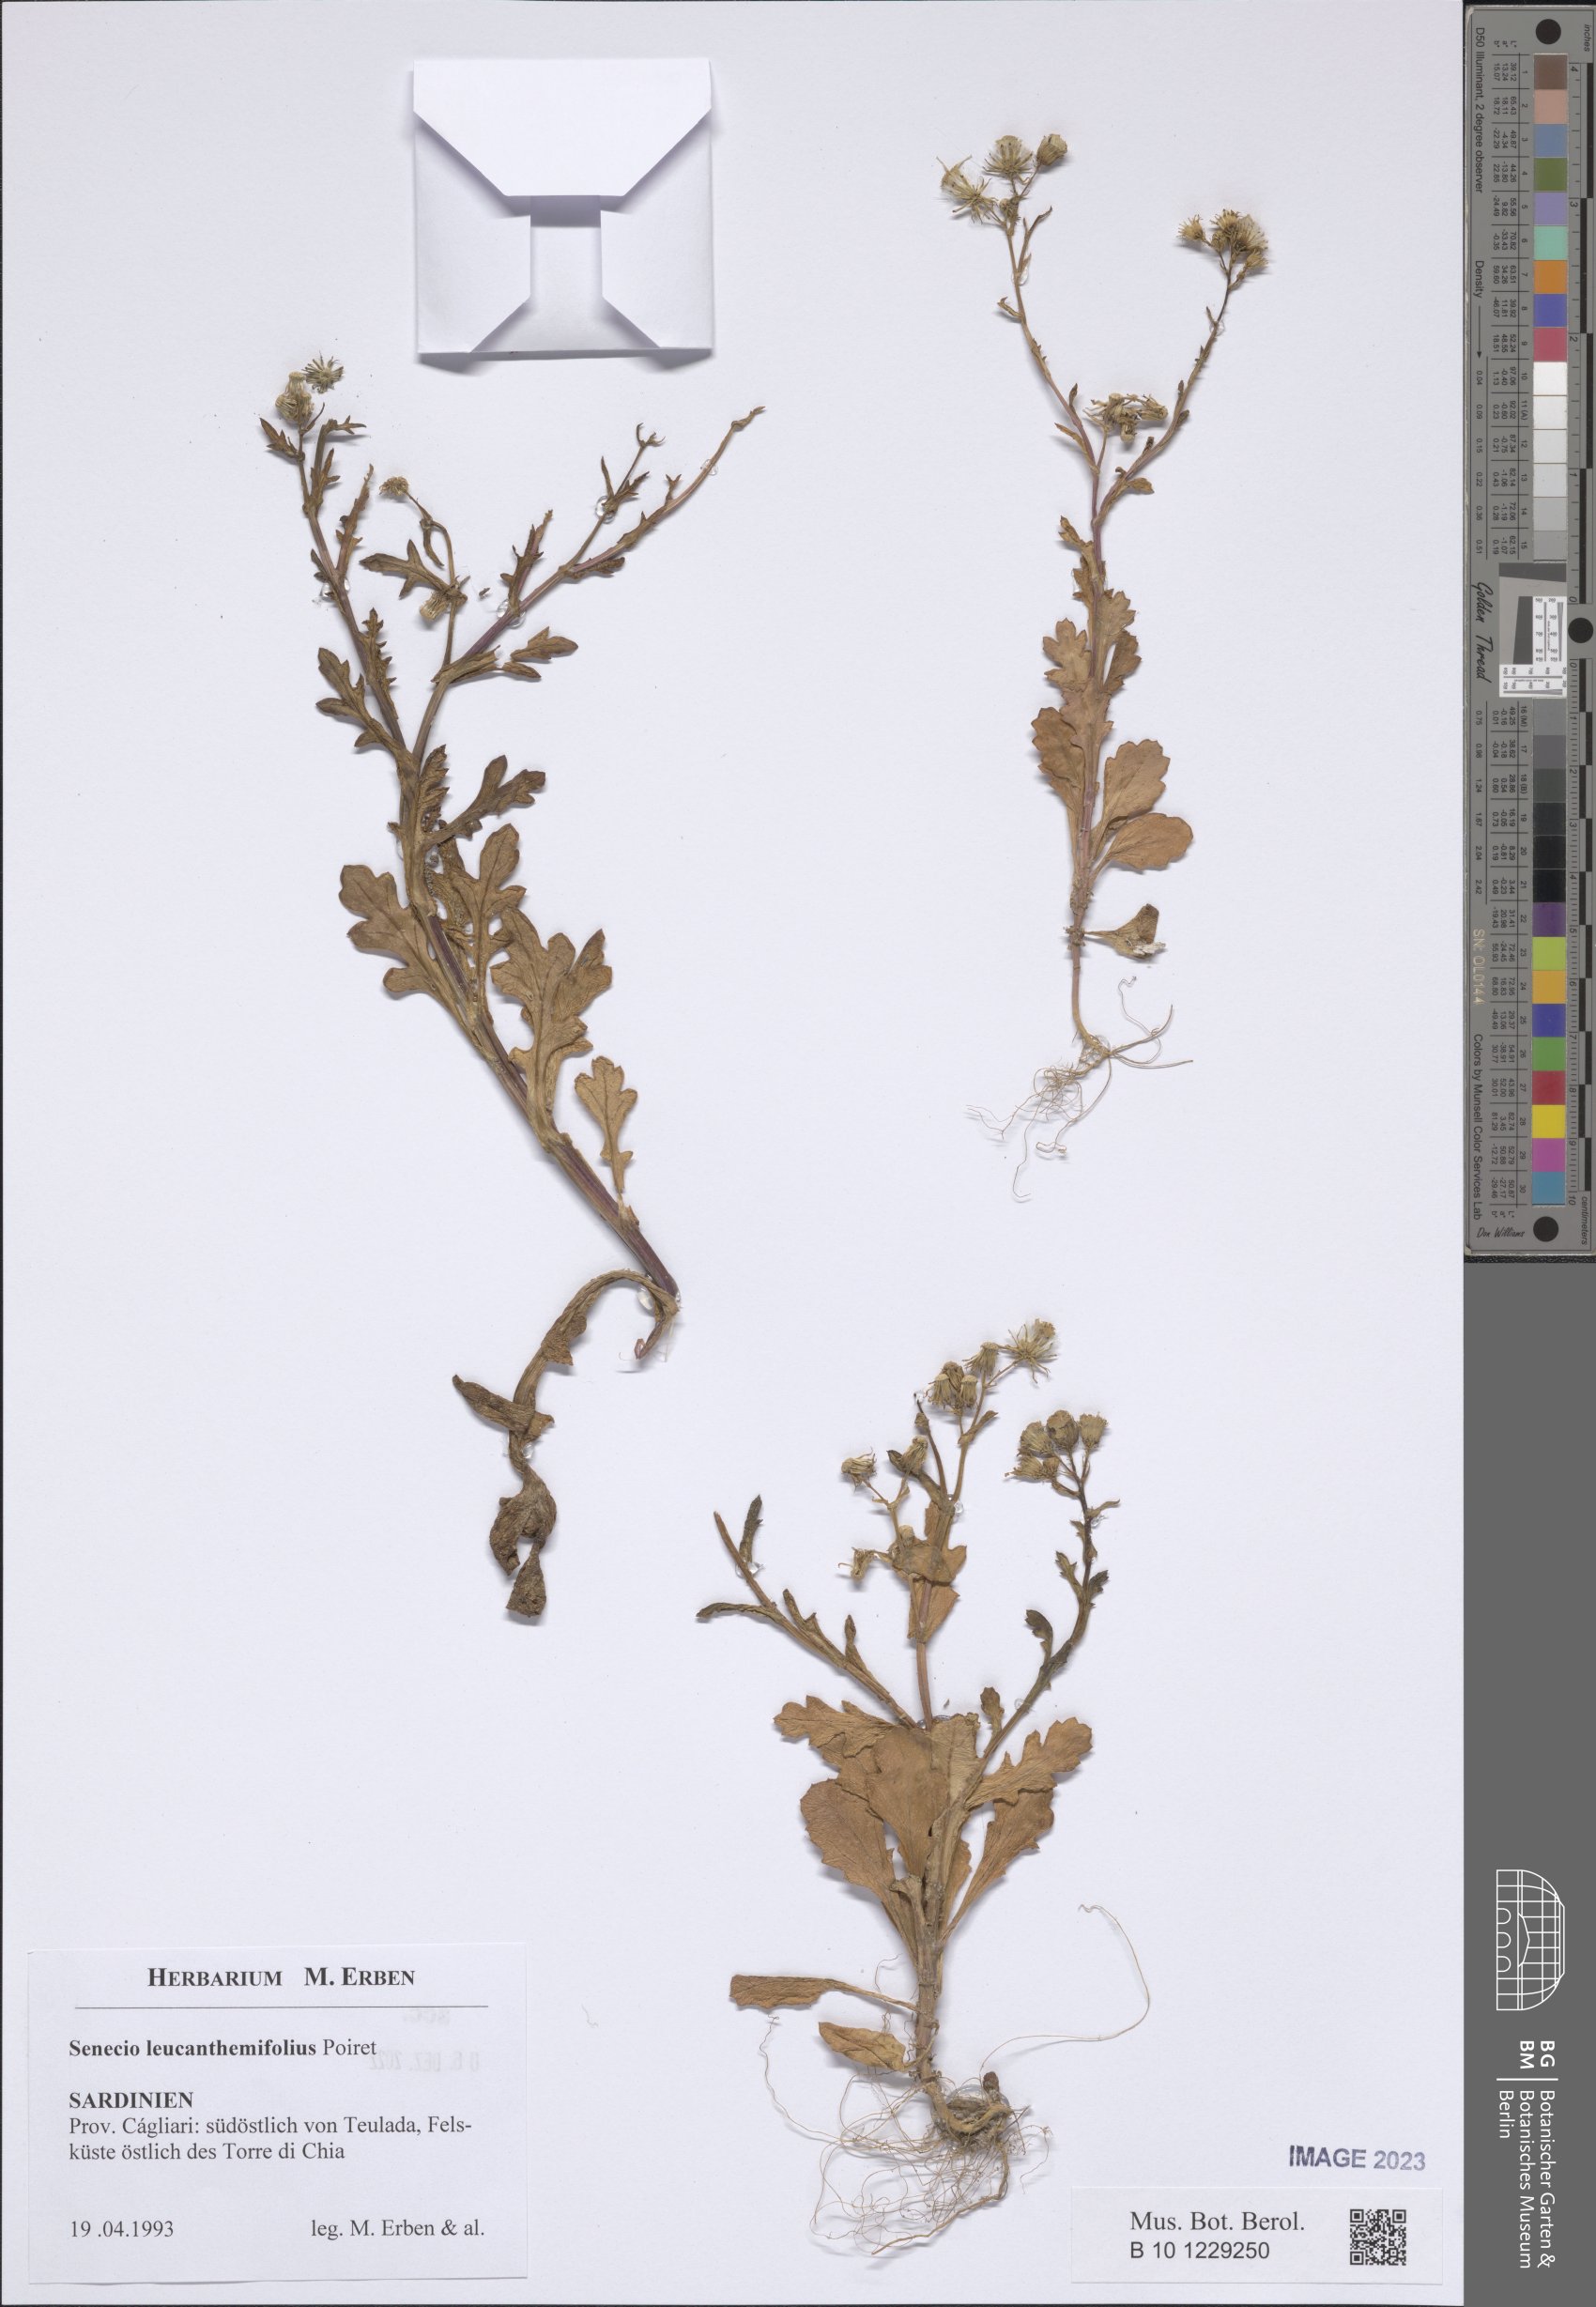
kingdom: Plantae
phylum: Tracheophyta
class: Magnoliopsida
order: Asterales
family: Asteraceae
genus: Senecio
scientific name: Senecio leucanthemifolius
